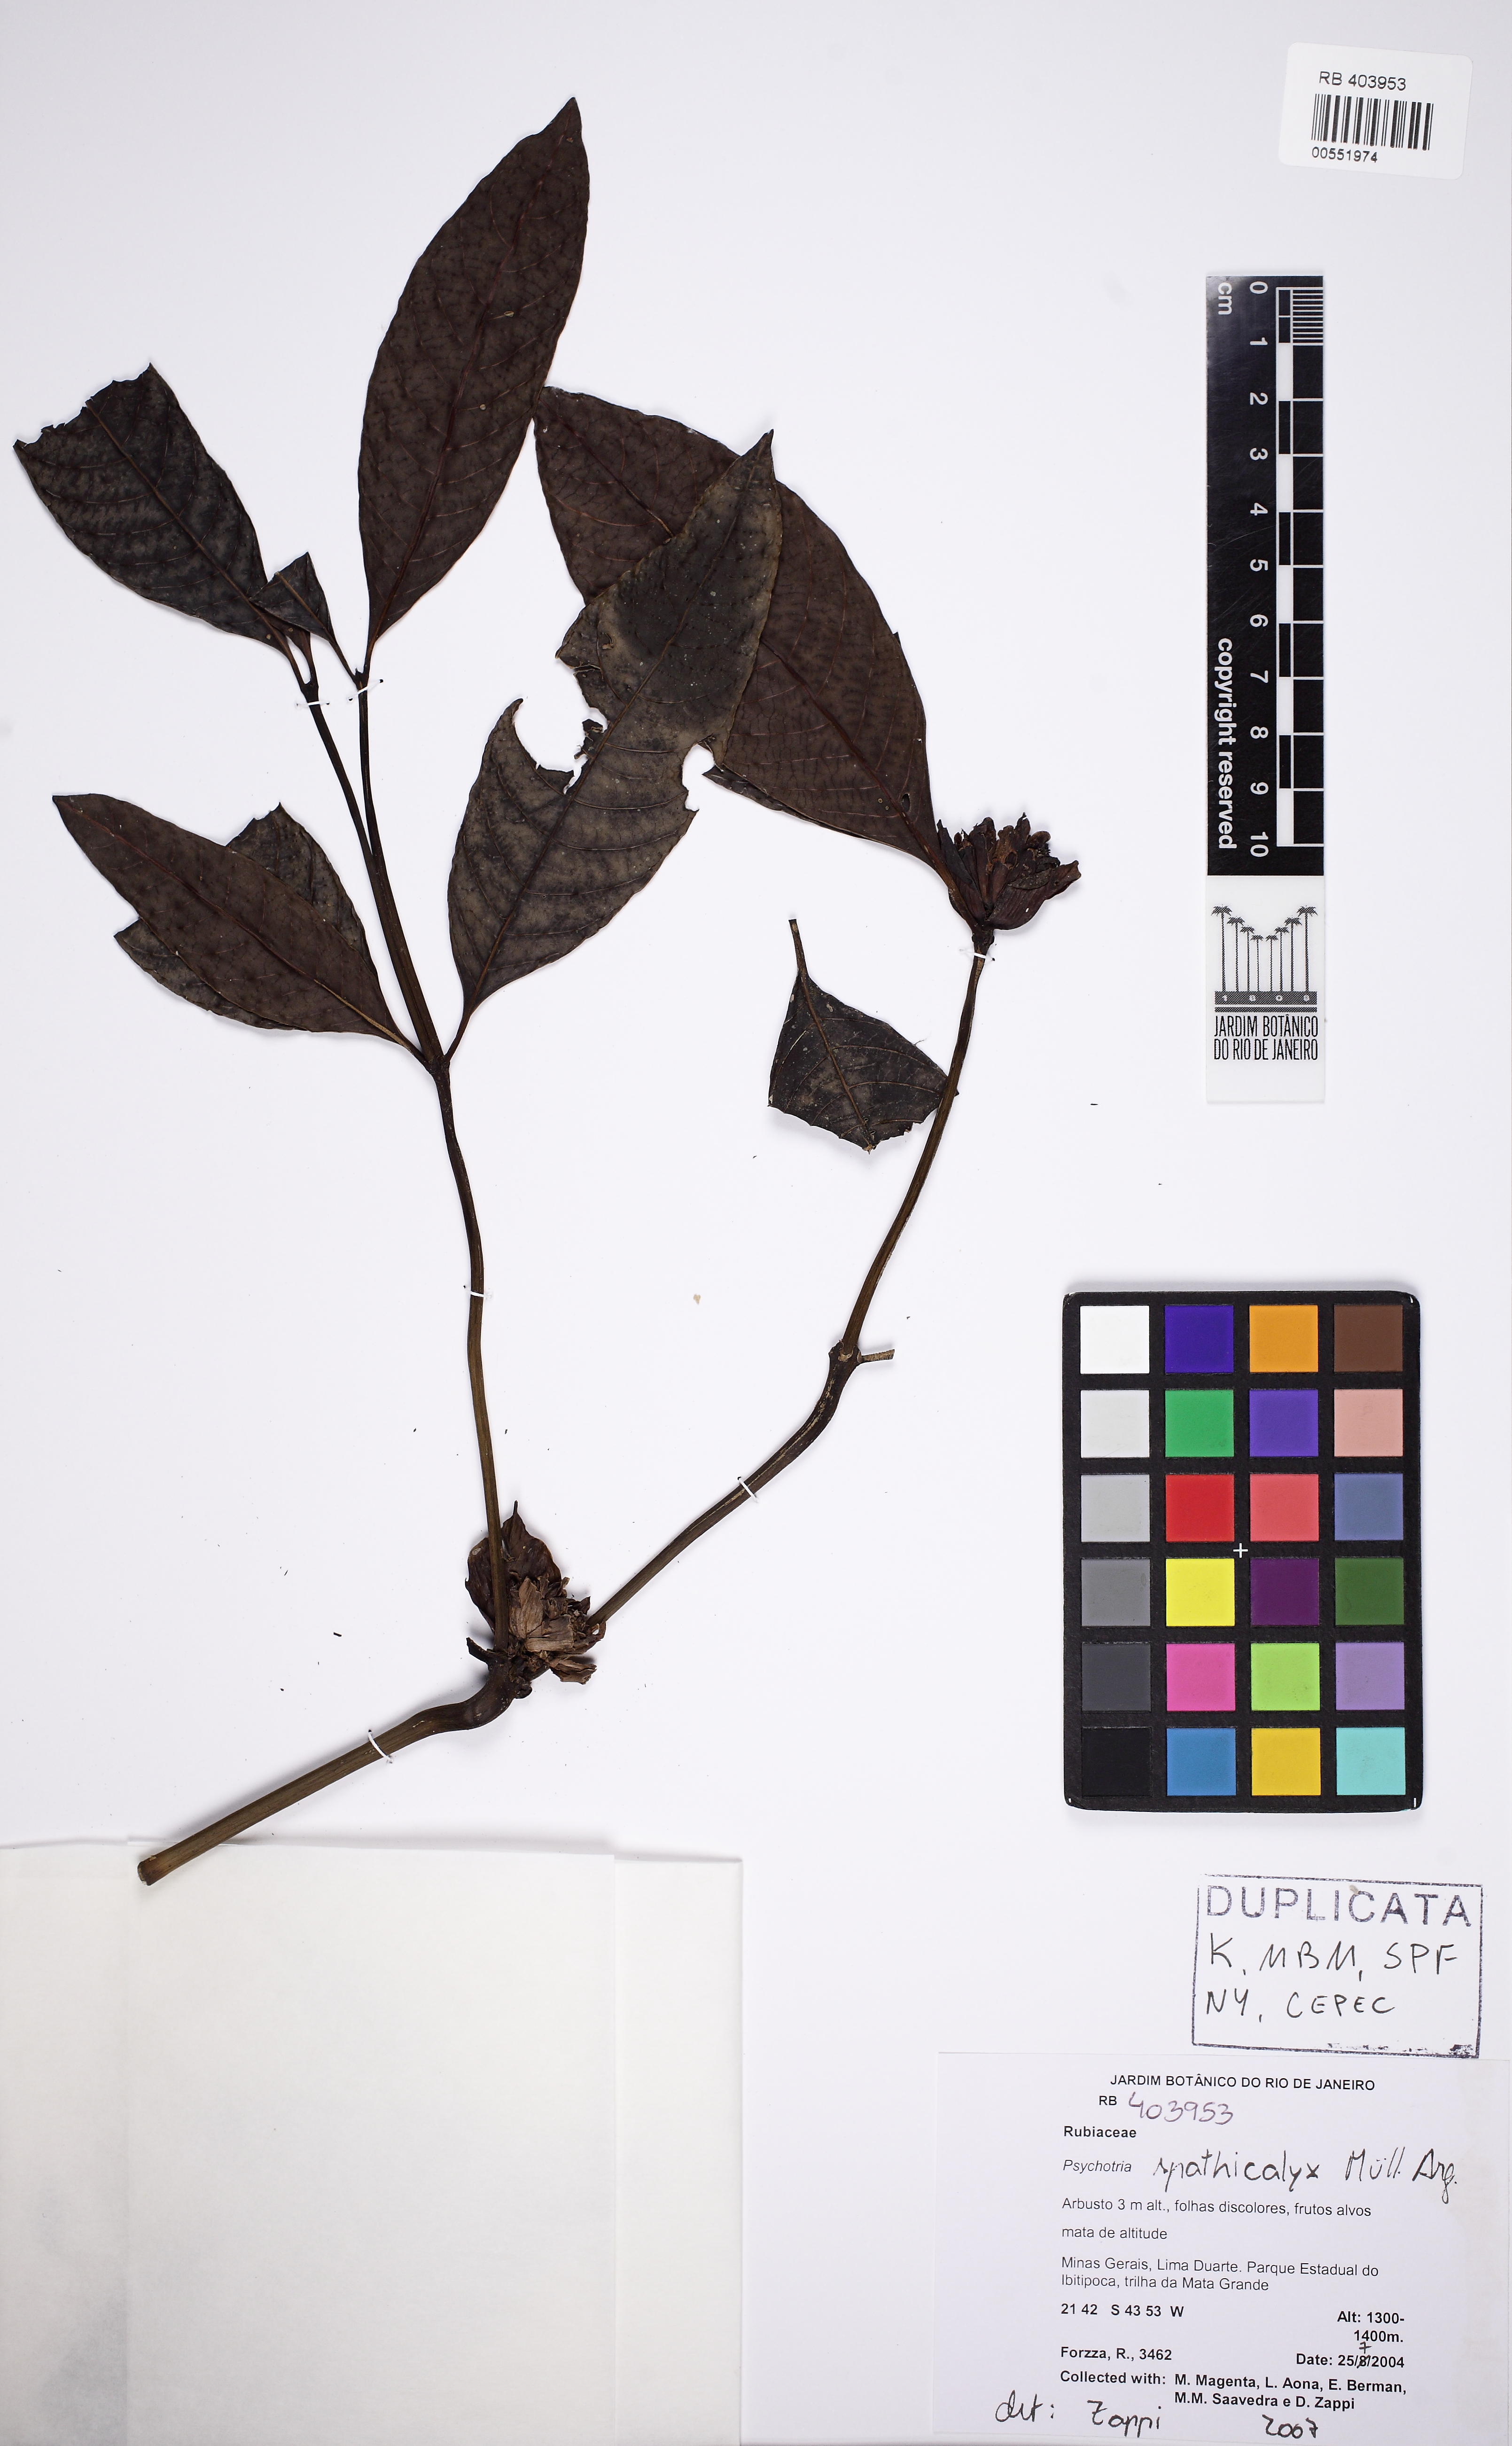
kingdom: Plantae
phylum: Tracheophyta
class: Magnoliopsida
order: Gentianales
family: Rubiaceae
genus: Psychotria
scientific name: Psychotria spathicalyx
